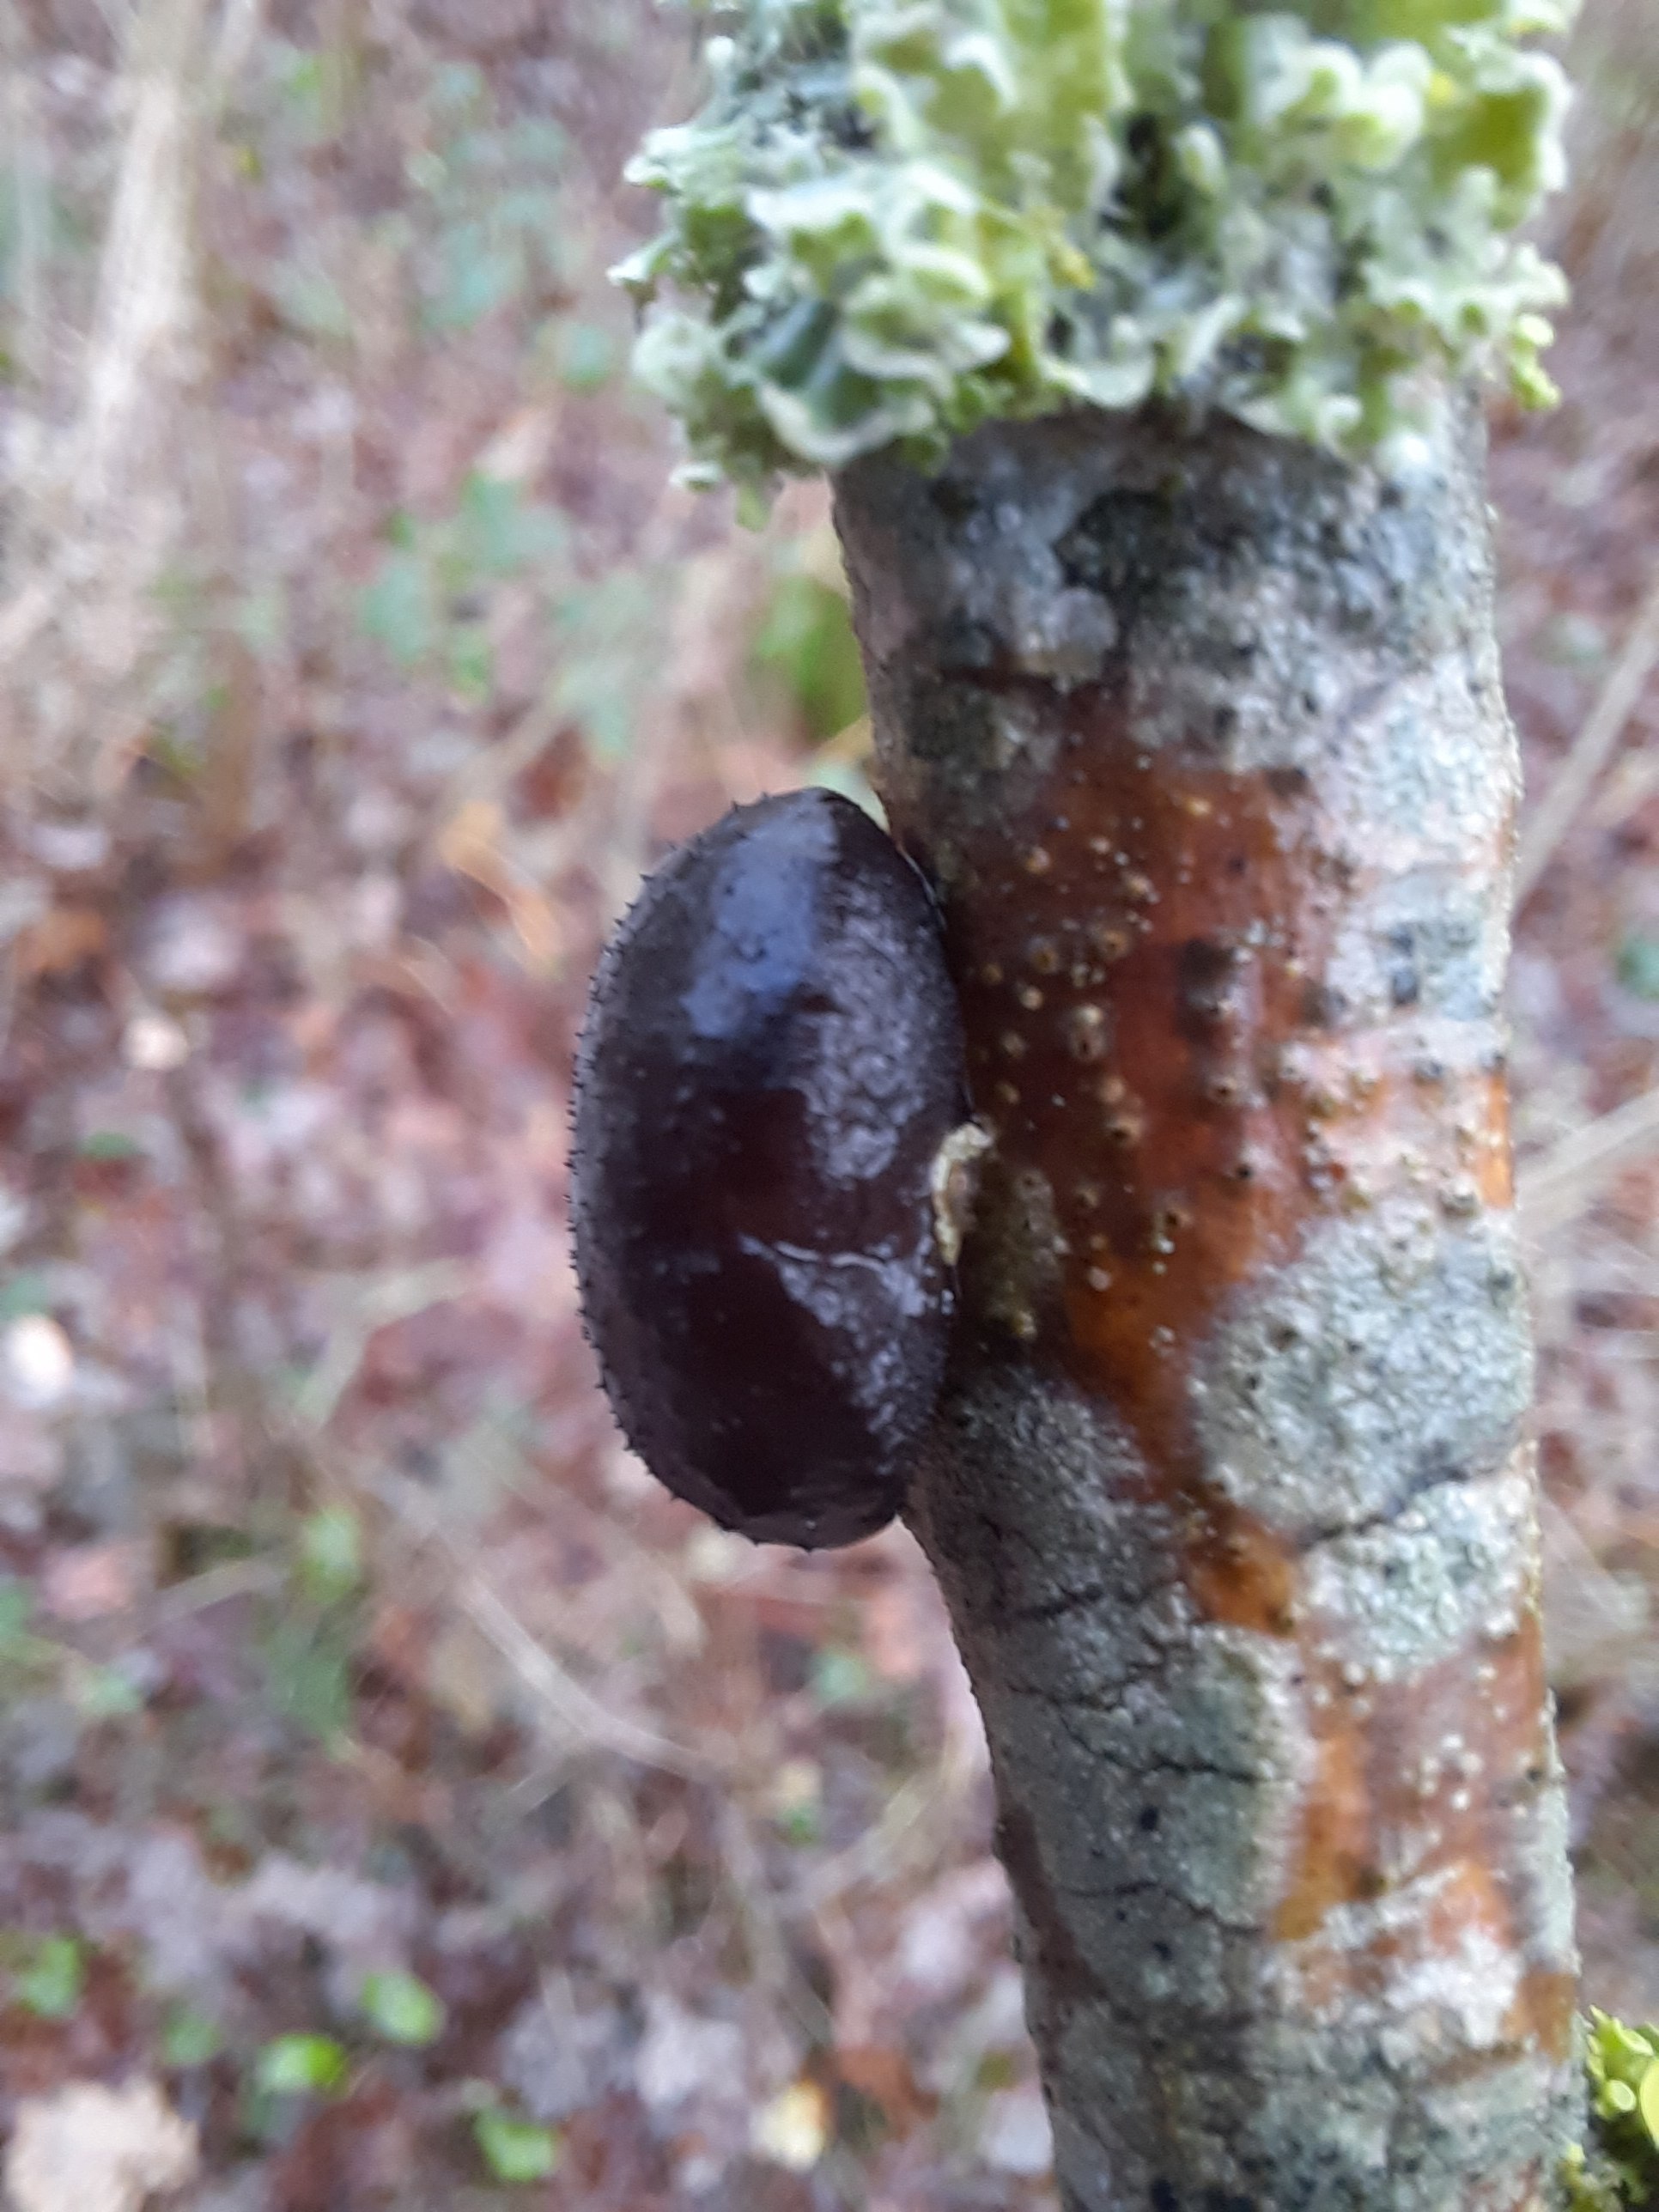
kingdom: Fungi
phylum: Basidiomycota
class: Agaricomycetes
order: Auriculariales
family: Auriculariaceae
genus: Exidia
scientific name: Exidia glandulosa
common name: ege-bævretop
